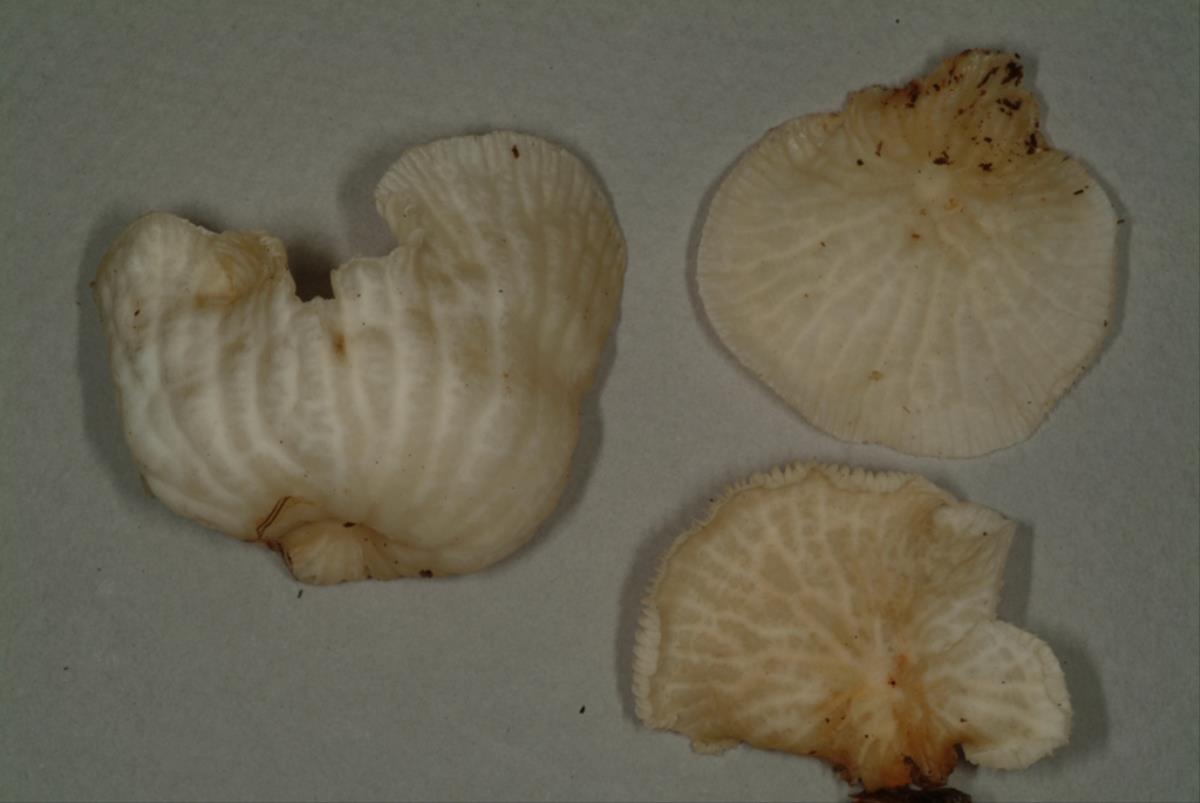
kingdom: Fungi
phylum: Basidiomycota
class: Agaricomycetes
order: Agaricales
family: Omphalotaceae
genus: Marasmiellus
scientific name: Marasmiellus inoderma
